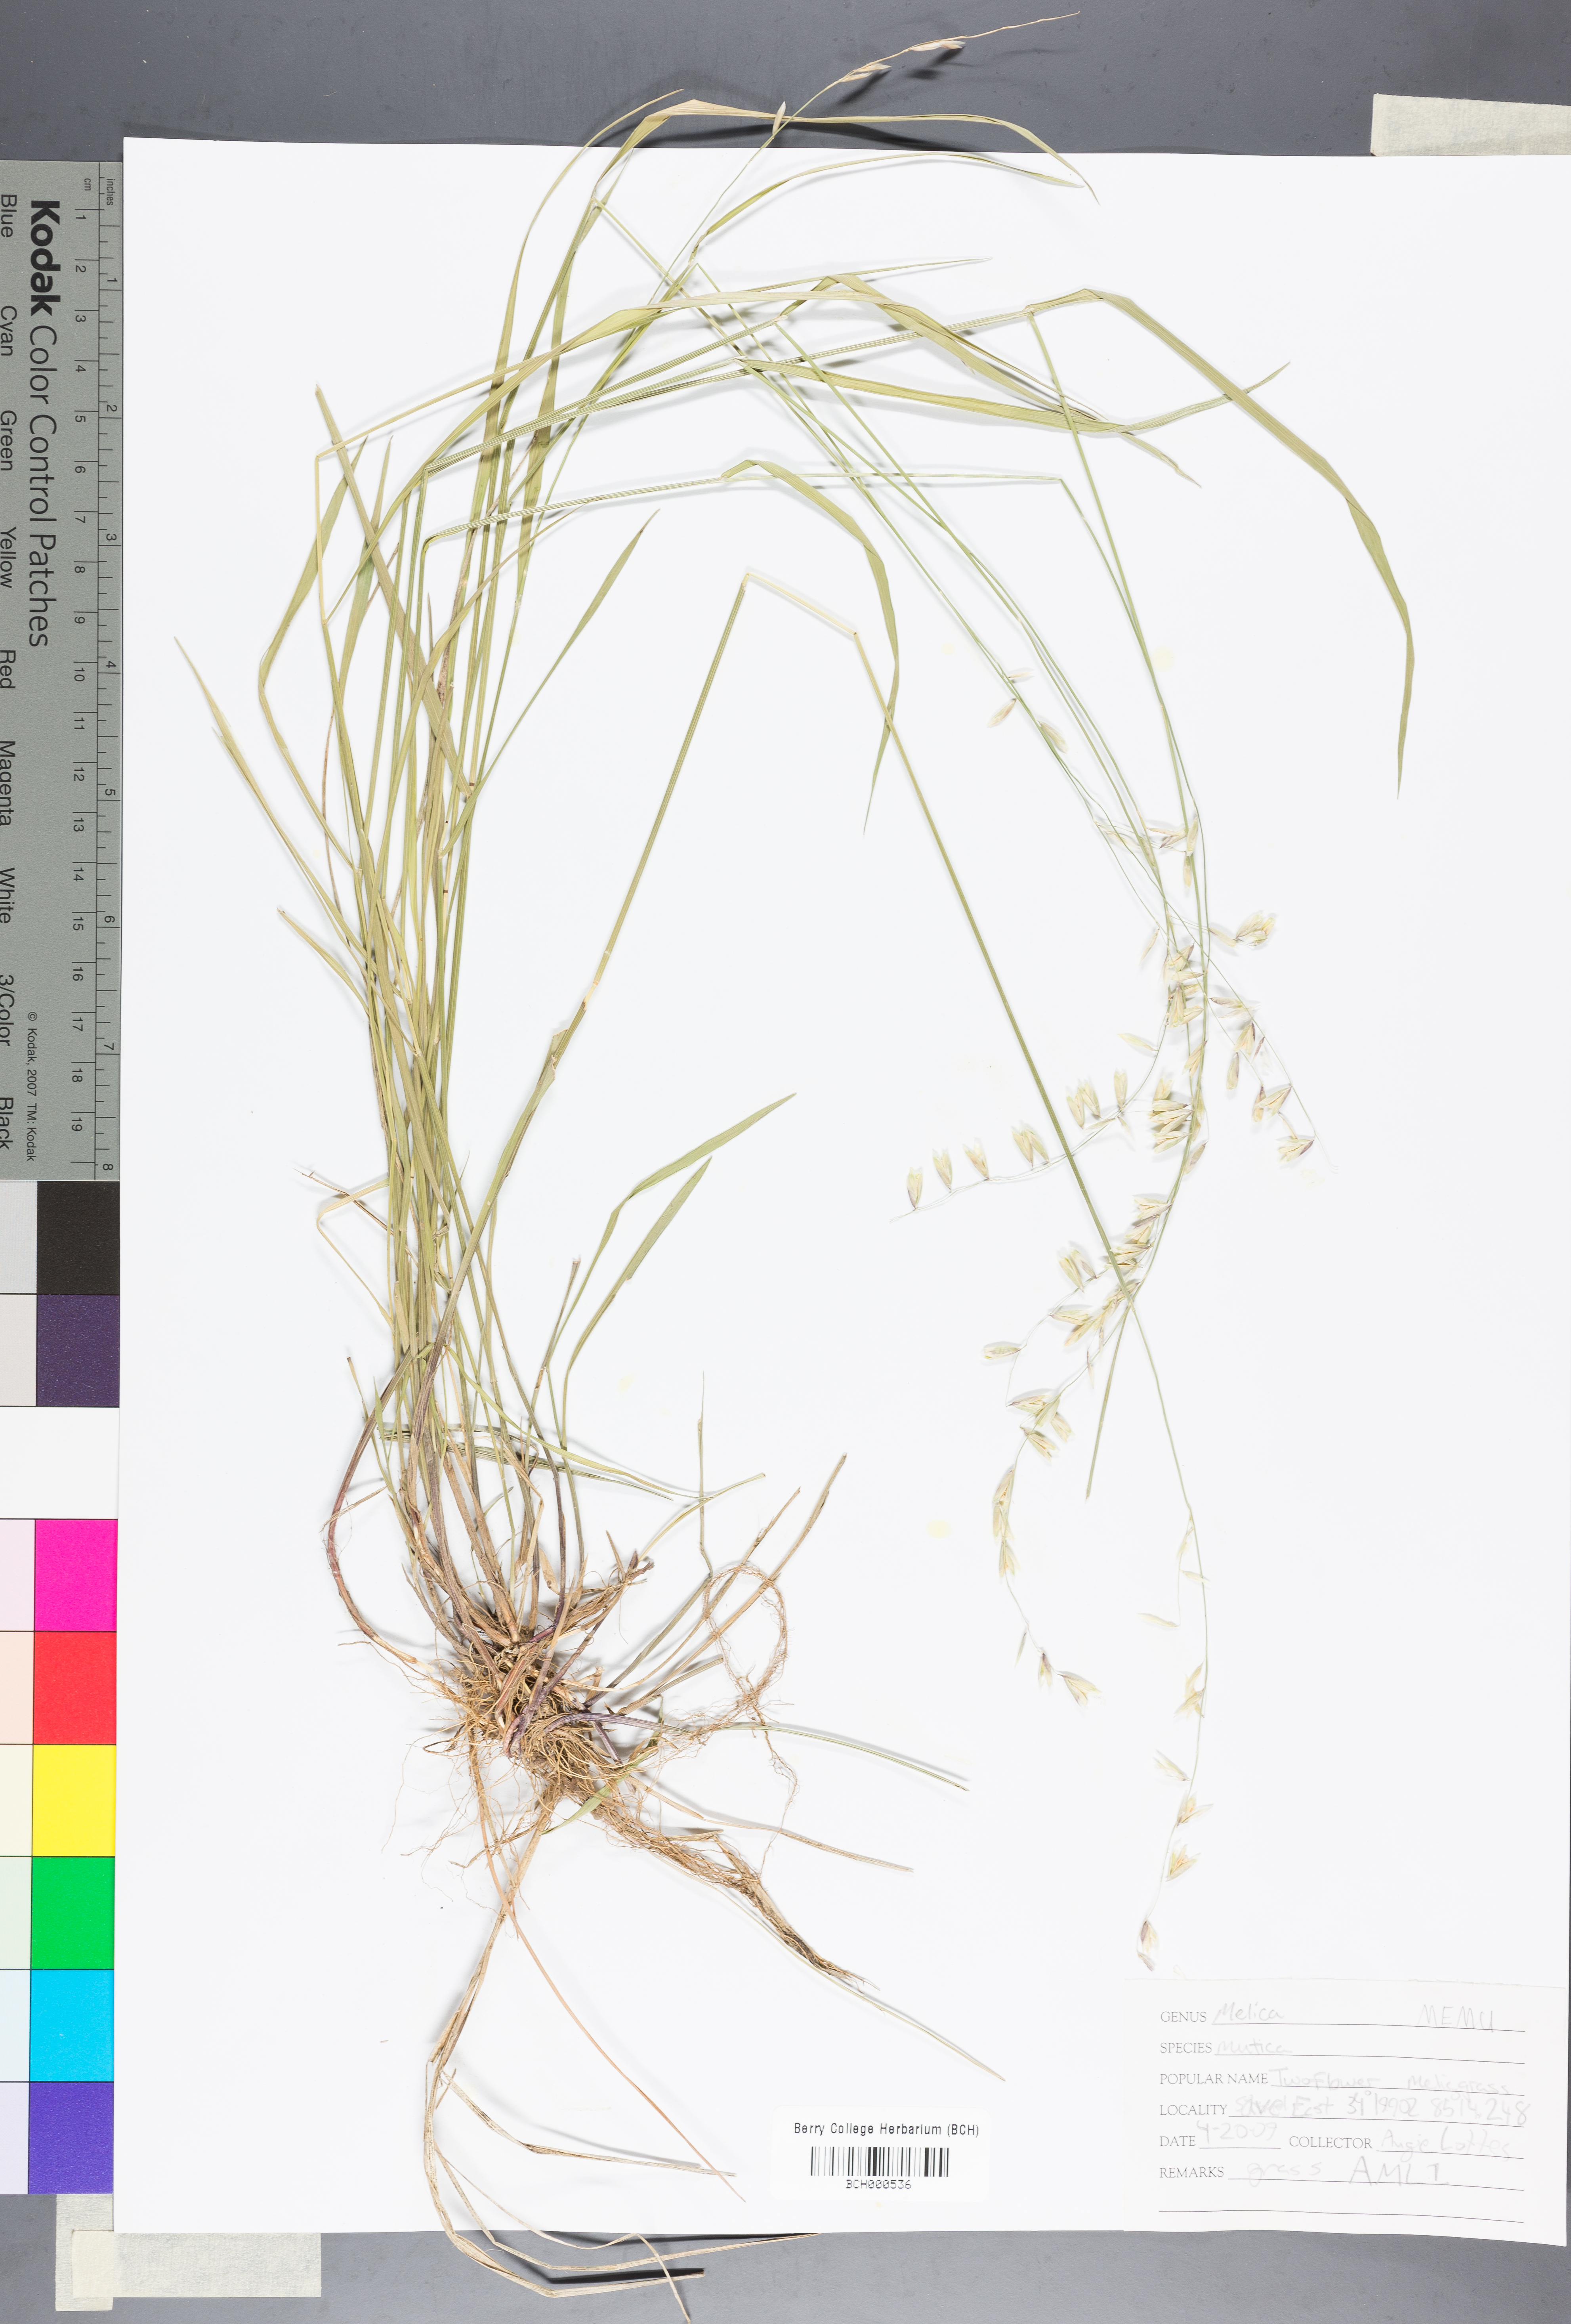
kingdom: Plantae
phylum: Tracheophyta
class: Liliopsida
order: Poales
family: Poaceae
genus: Melica
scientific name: Melica mutica
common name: Two-flower melic
